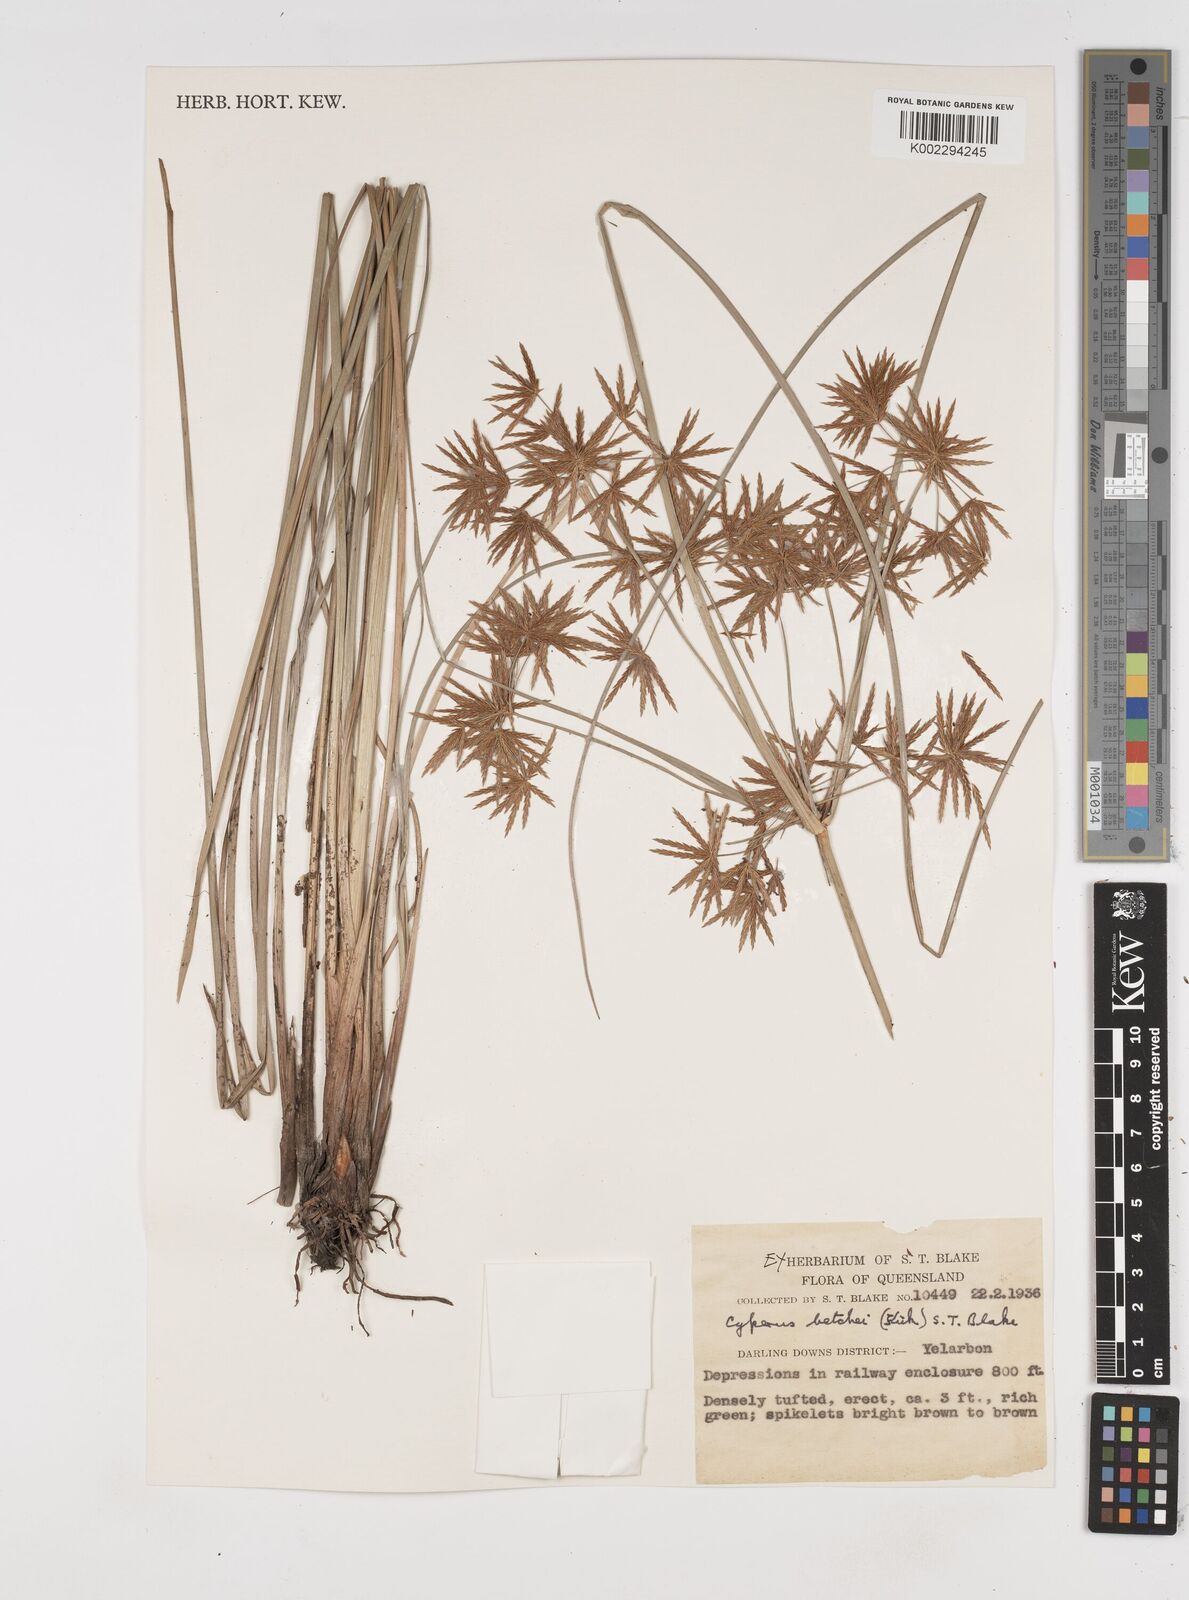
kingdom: Plantae
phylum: Tracheophyta
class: Liliopsida
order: Poales
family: Cyperaceae
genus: Cyperus
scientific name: Cyperus betchei
